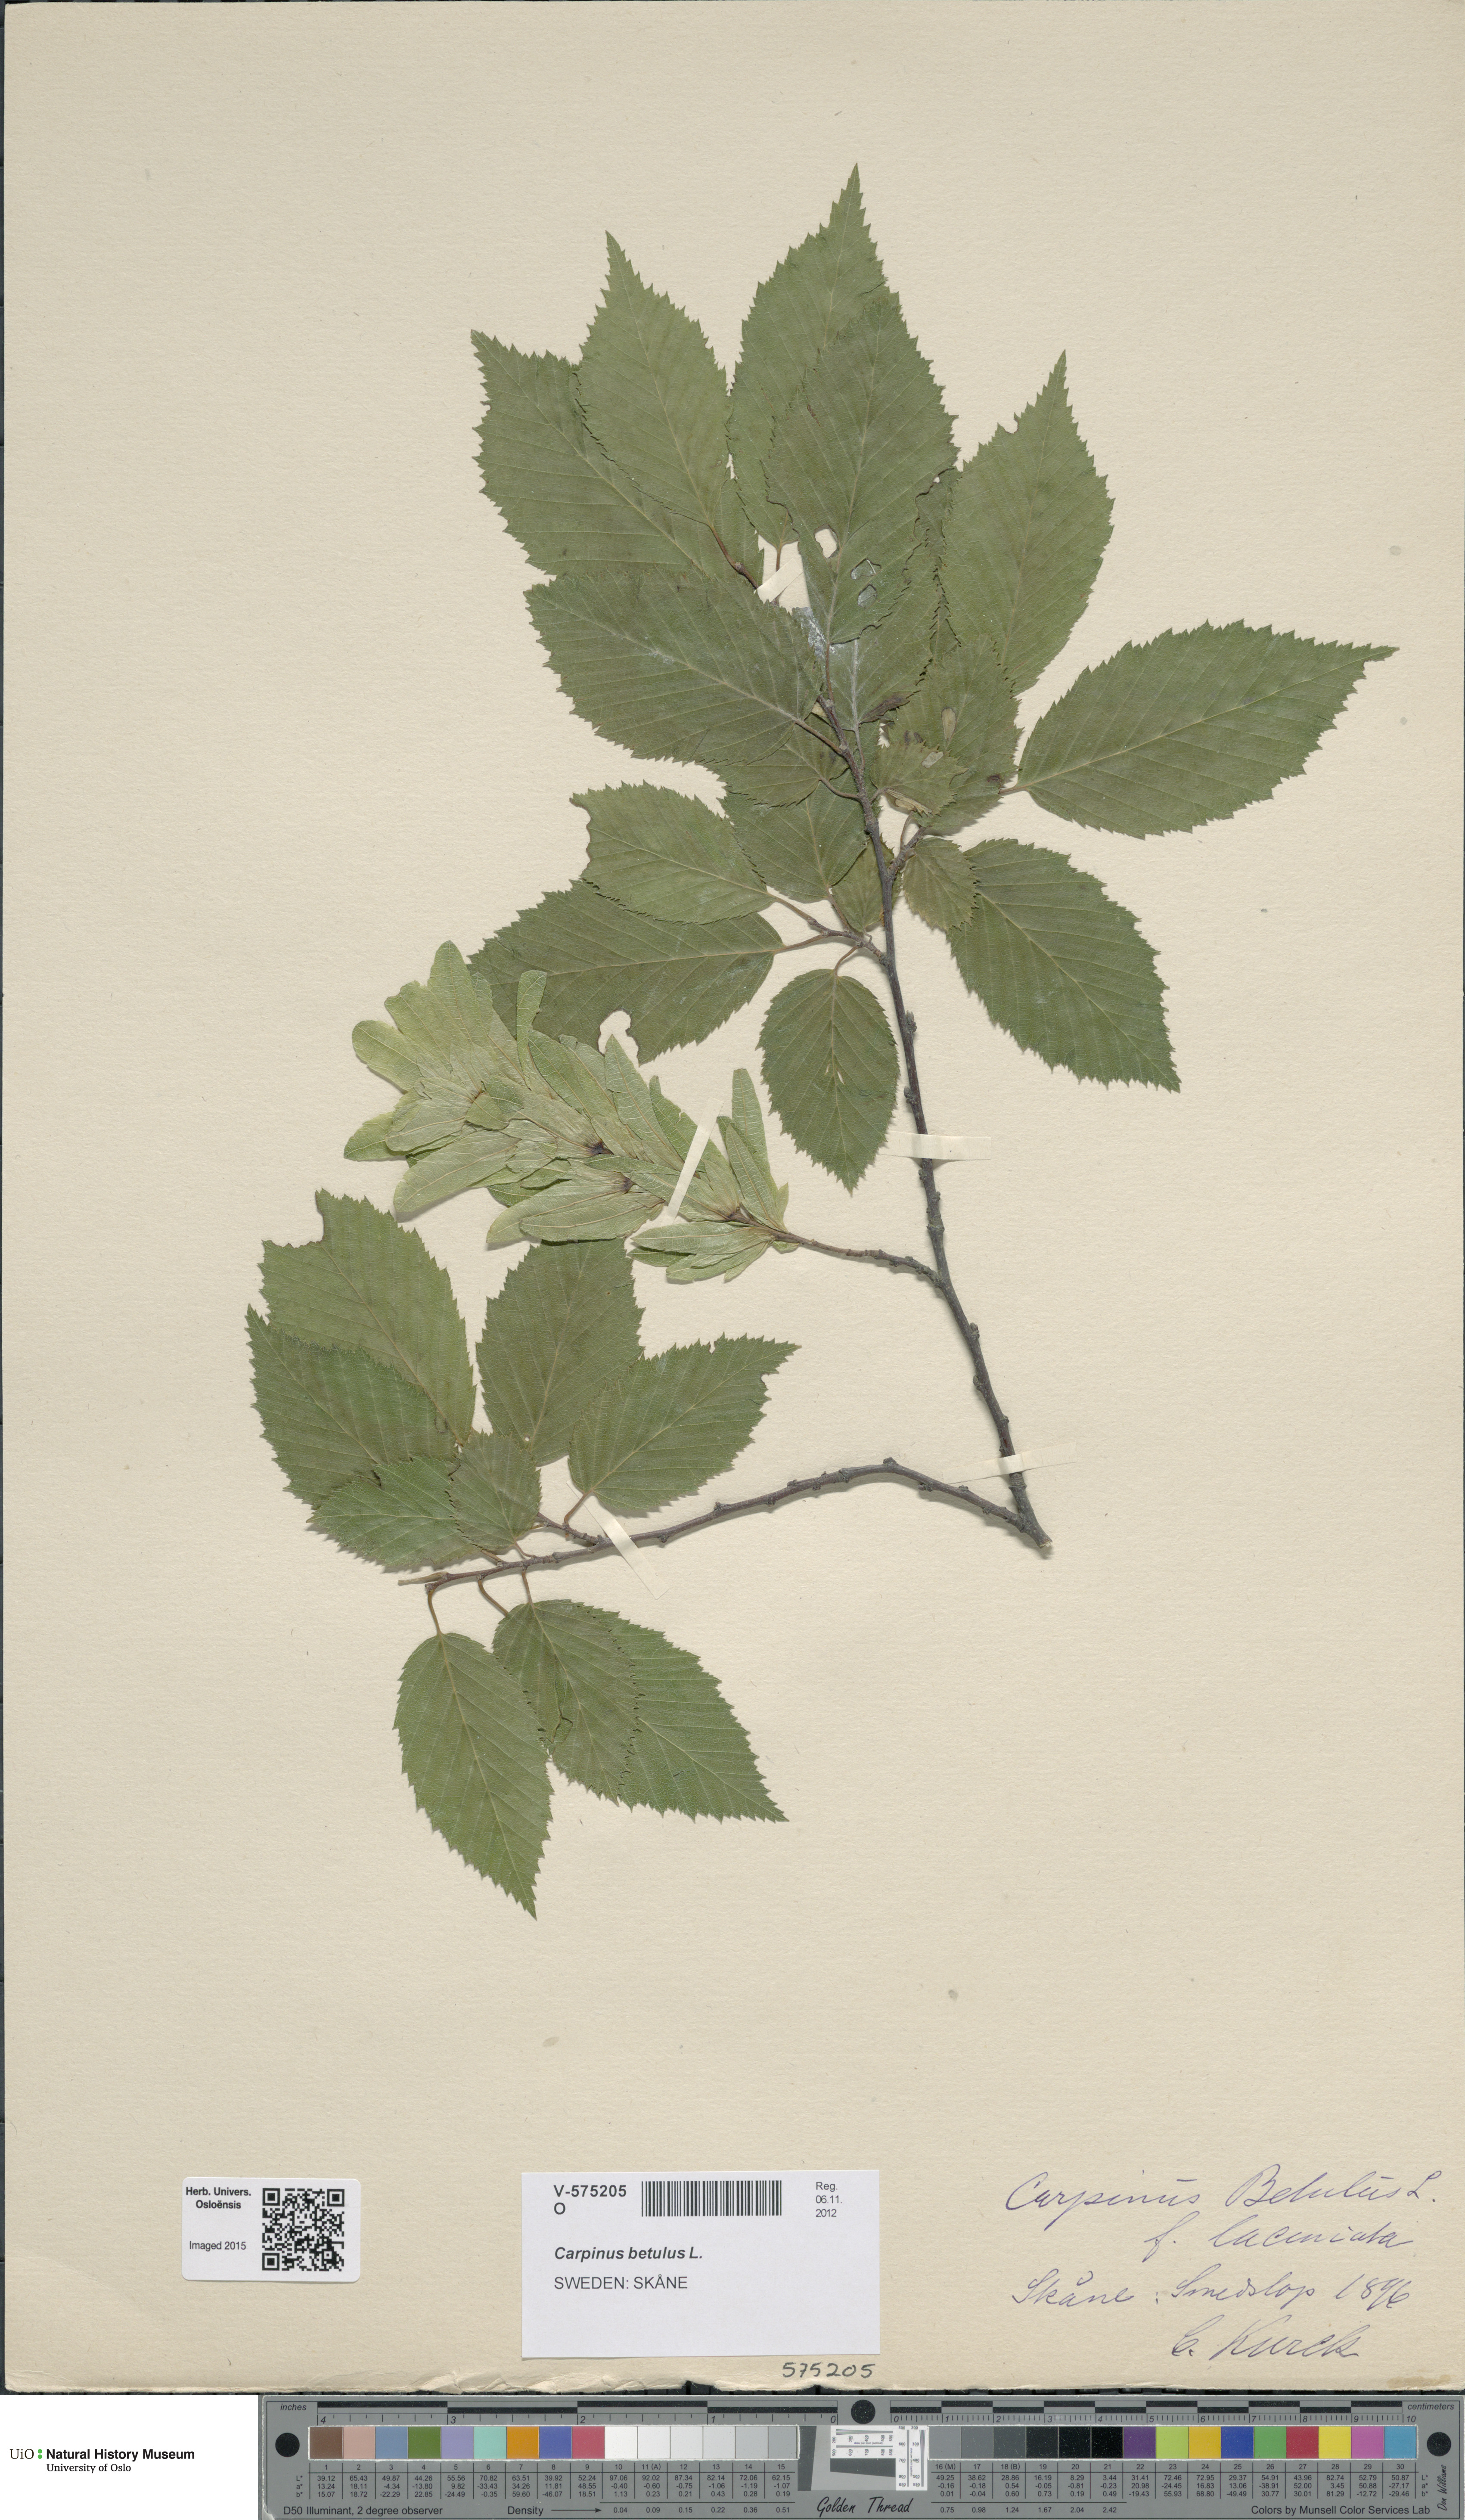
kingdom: Plantae
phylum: Tracheophyta
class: Magnoliopsida
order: Fagales
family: Betulaceae
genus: Carpinus
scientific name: Carpinus betulus
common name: Hornbeam
